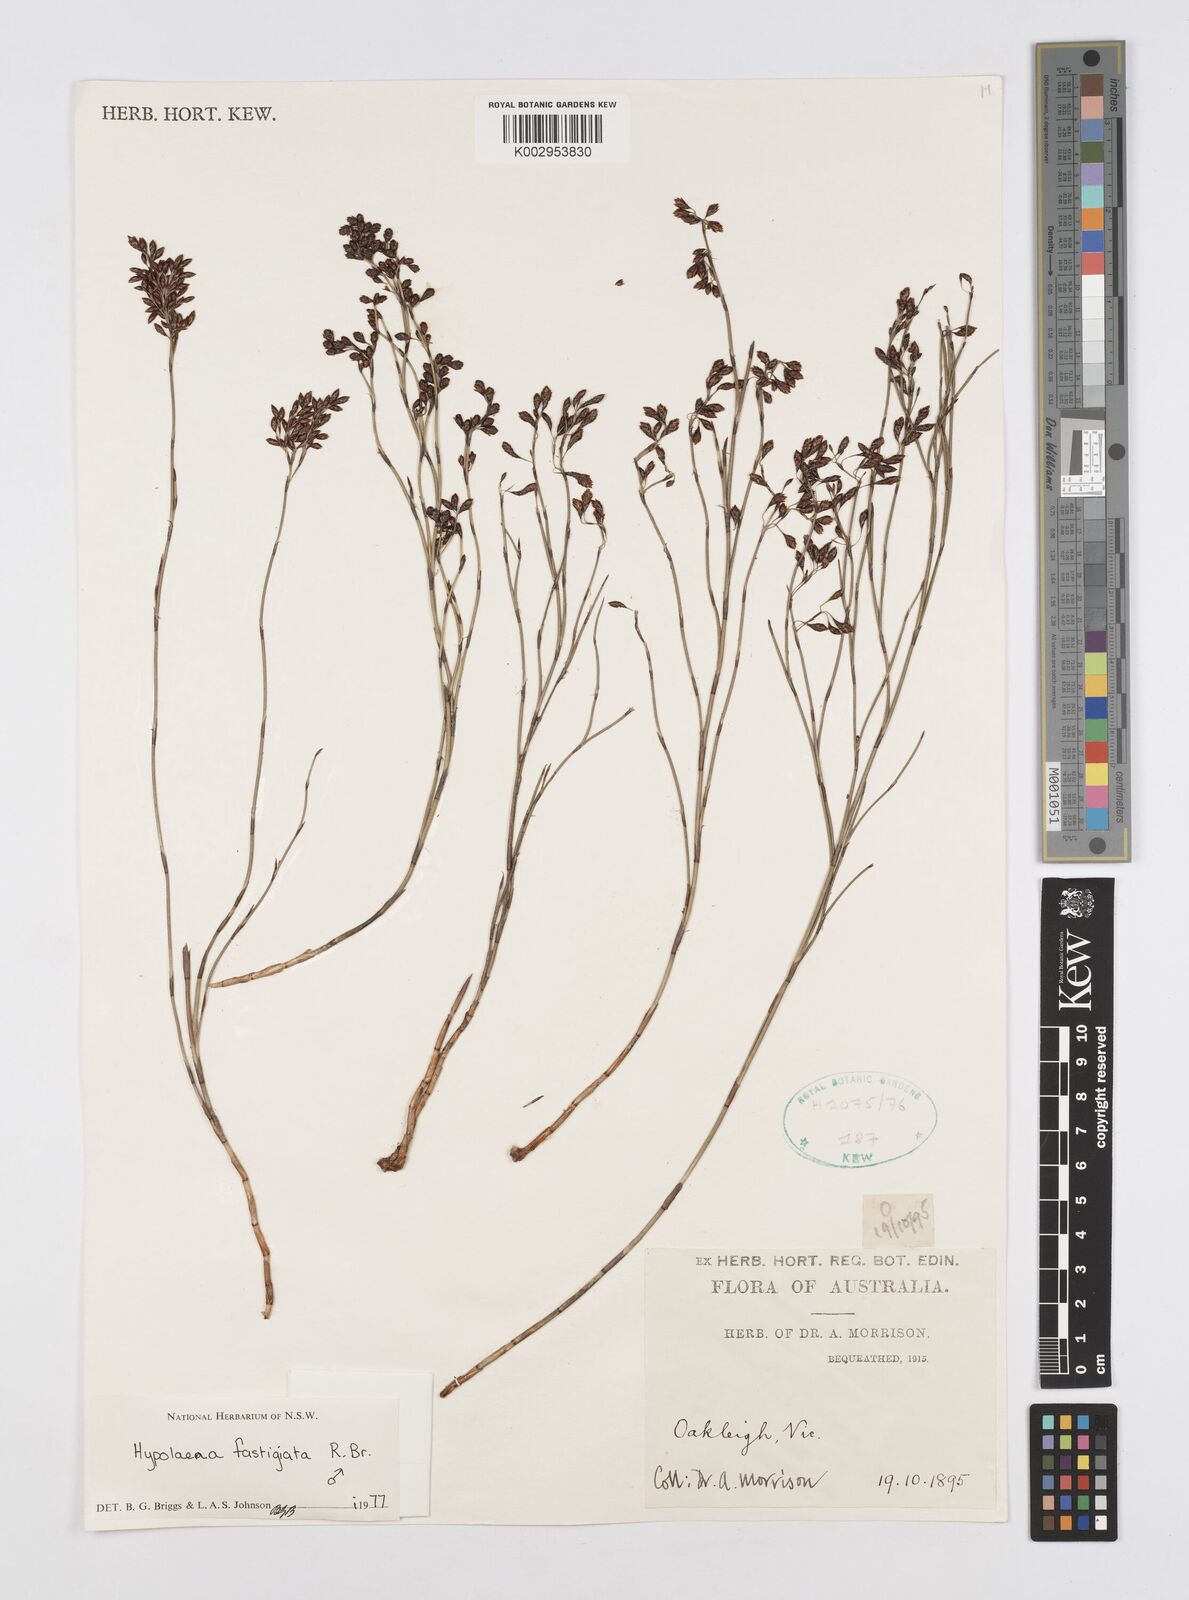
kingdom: Plantae
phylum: Tracheophyta
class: Liliopsida
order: Poales
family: Restionaceae
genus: Hypolaena
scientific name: Hypolaena fastigiata
